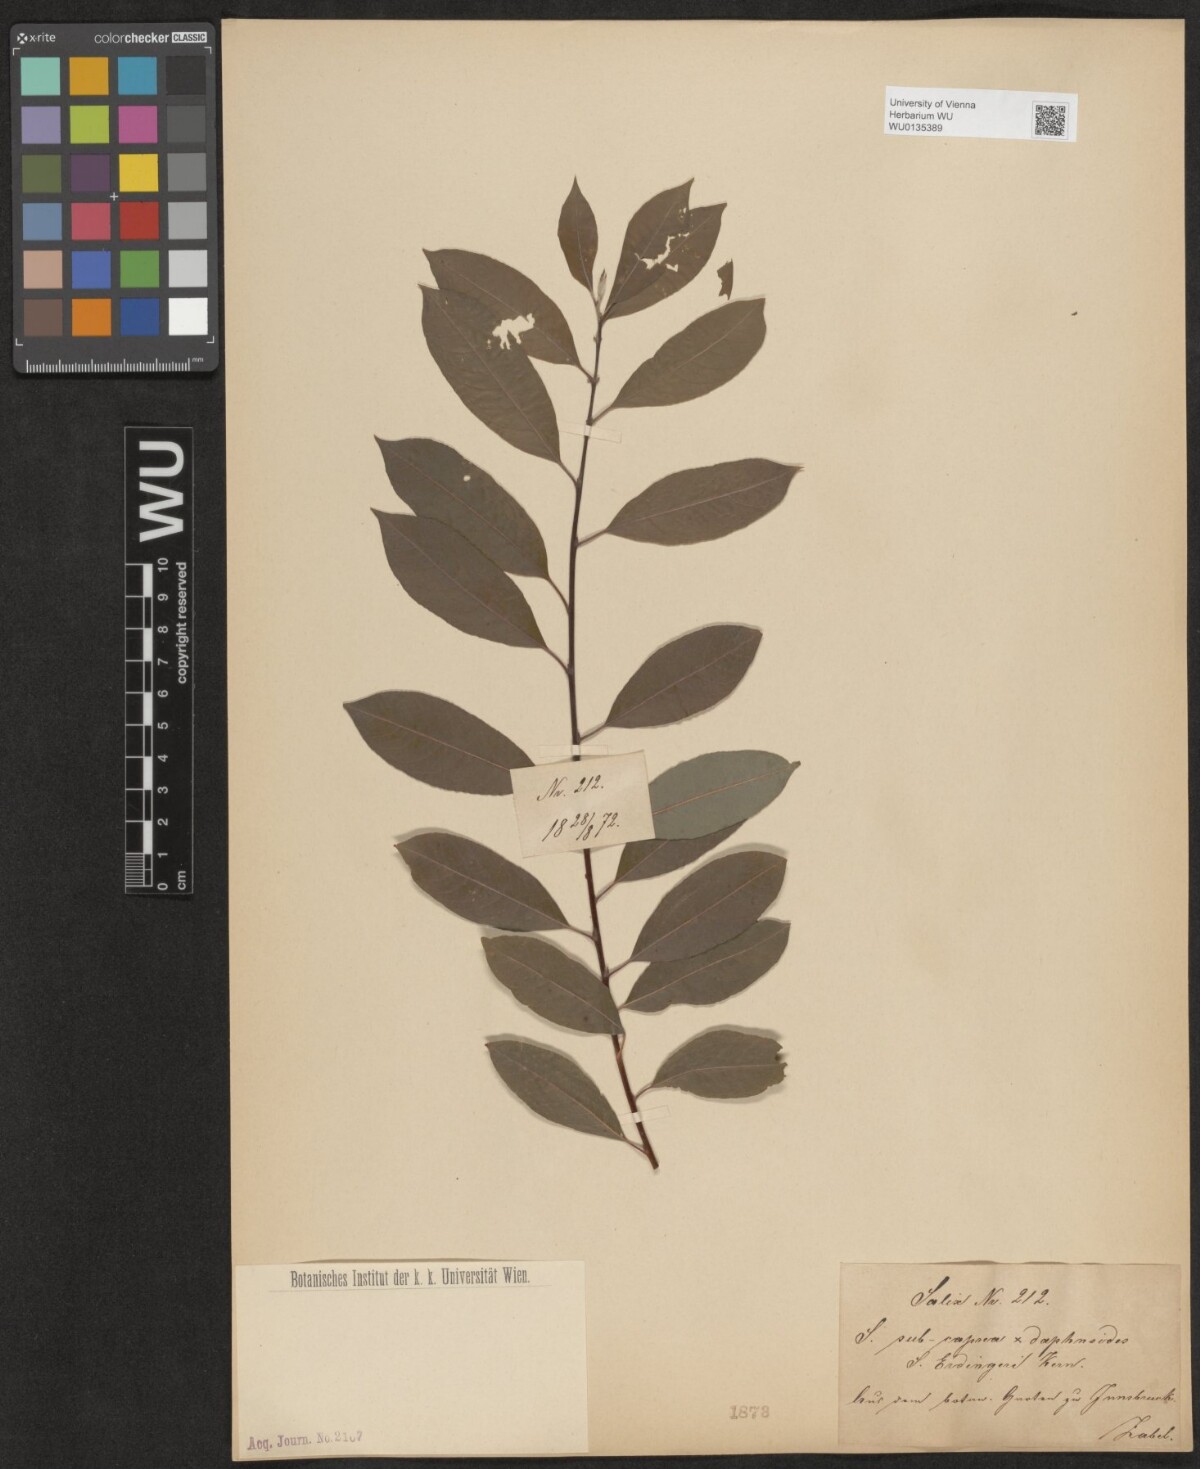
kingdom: Plantae
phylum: Tracheophyta
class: Magnoliopsida
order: Malpighiales
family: Salicaceae
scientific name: Salicaceae
